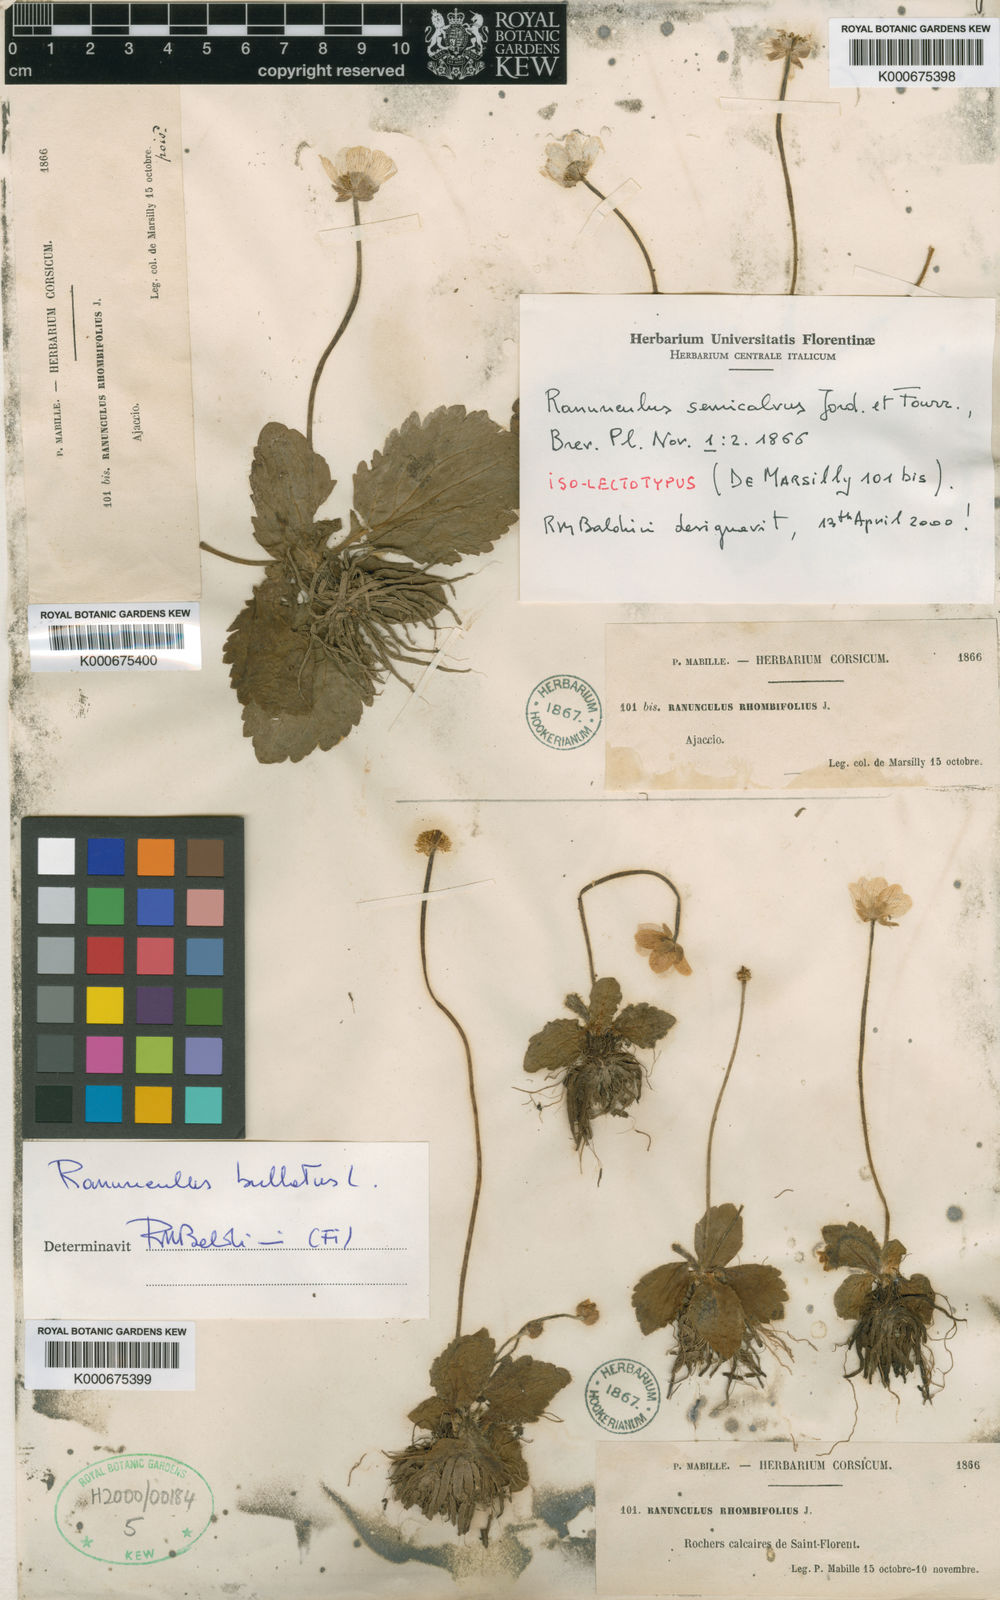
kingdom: Plantae
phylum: Tracheophyta
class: Magnoliopsida
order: Ranunculales
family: Ranunculaceae
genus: Ranunculus
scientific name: Ranunculus bullatus
